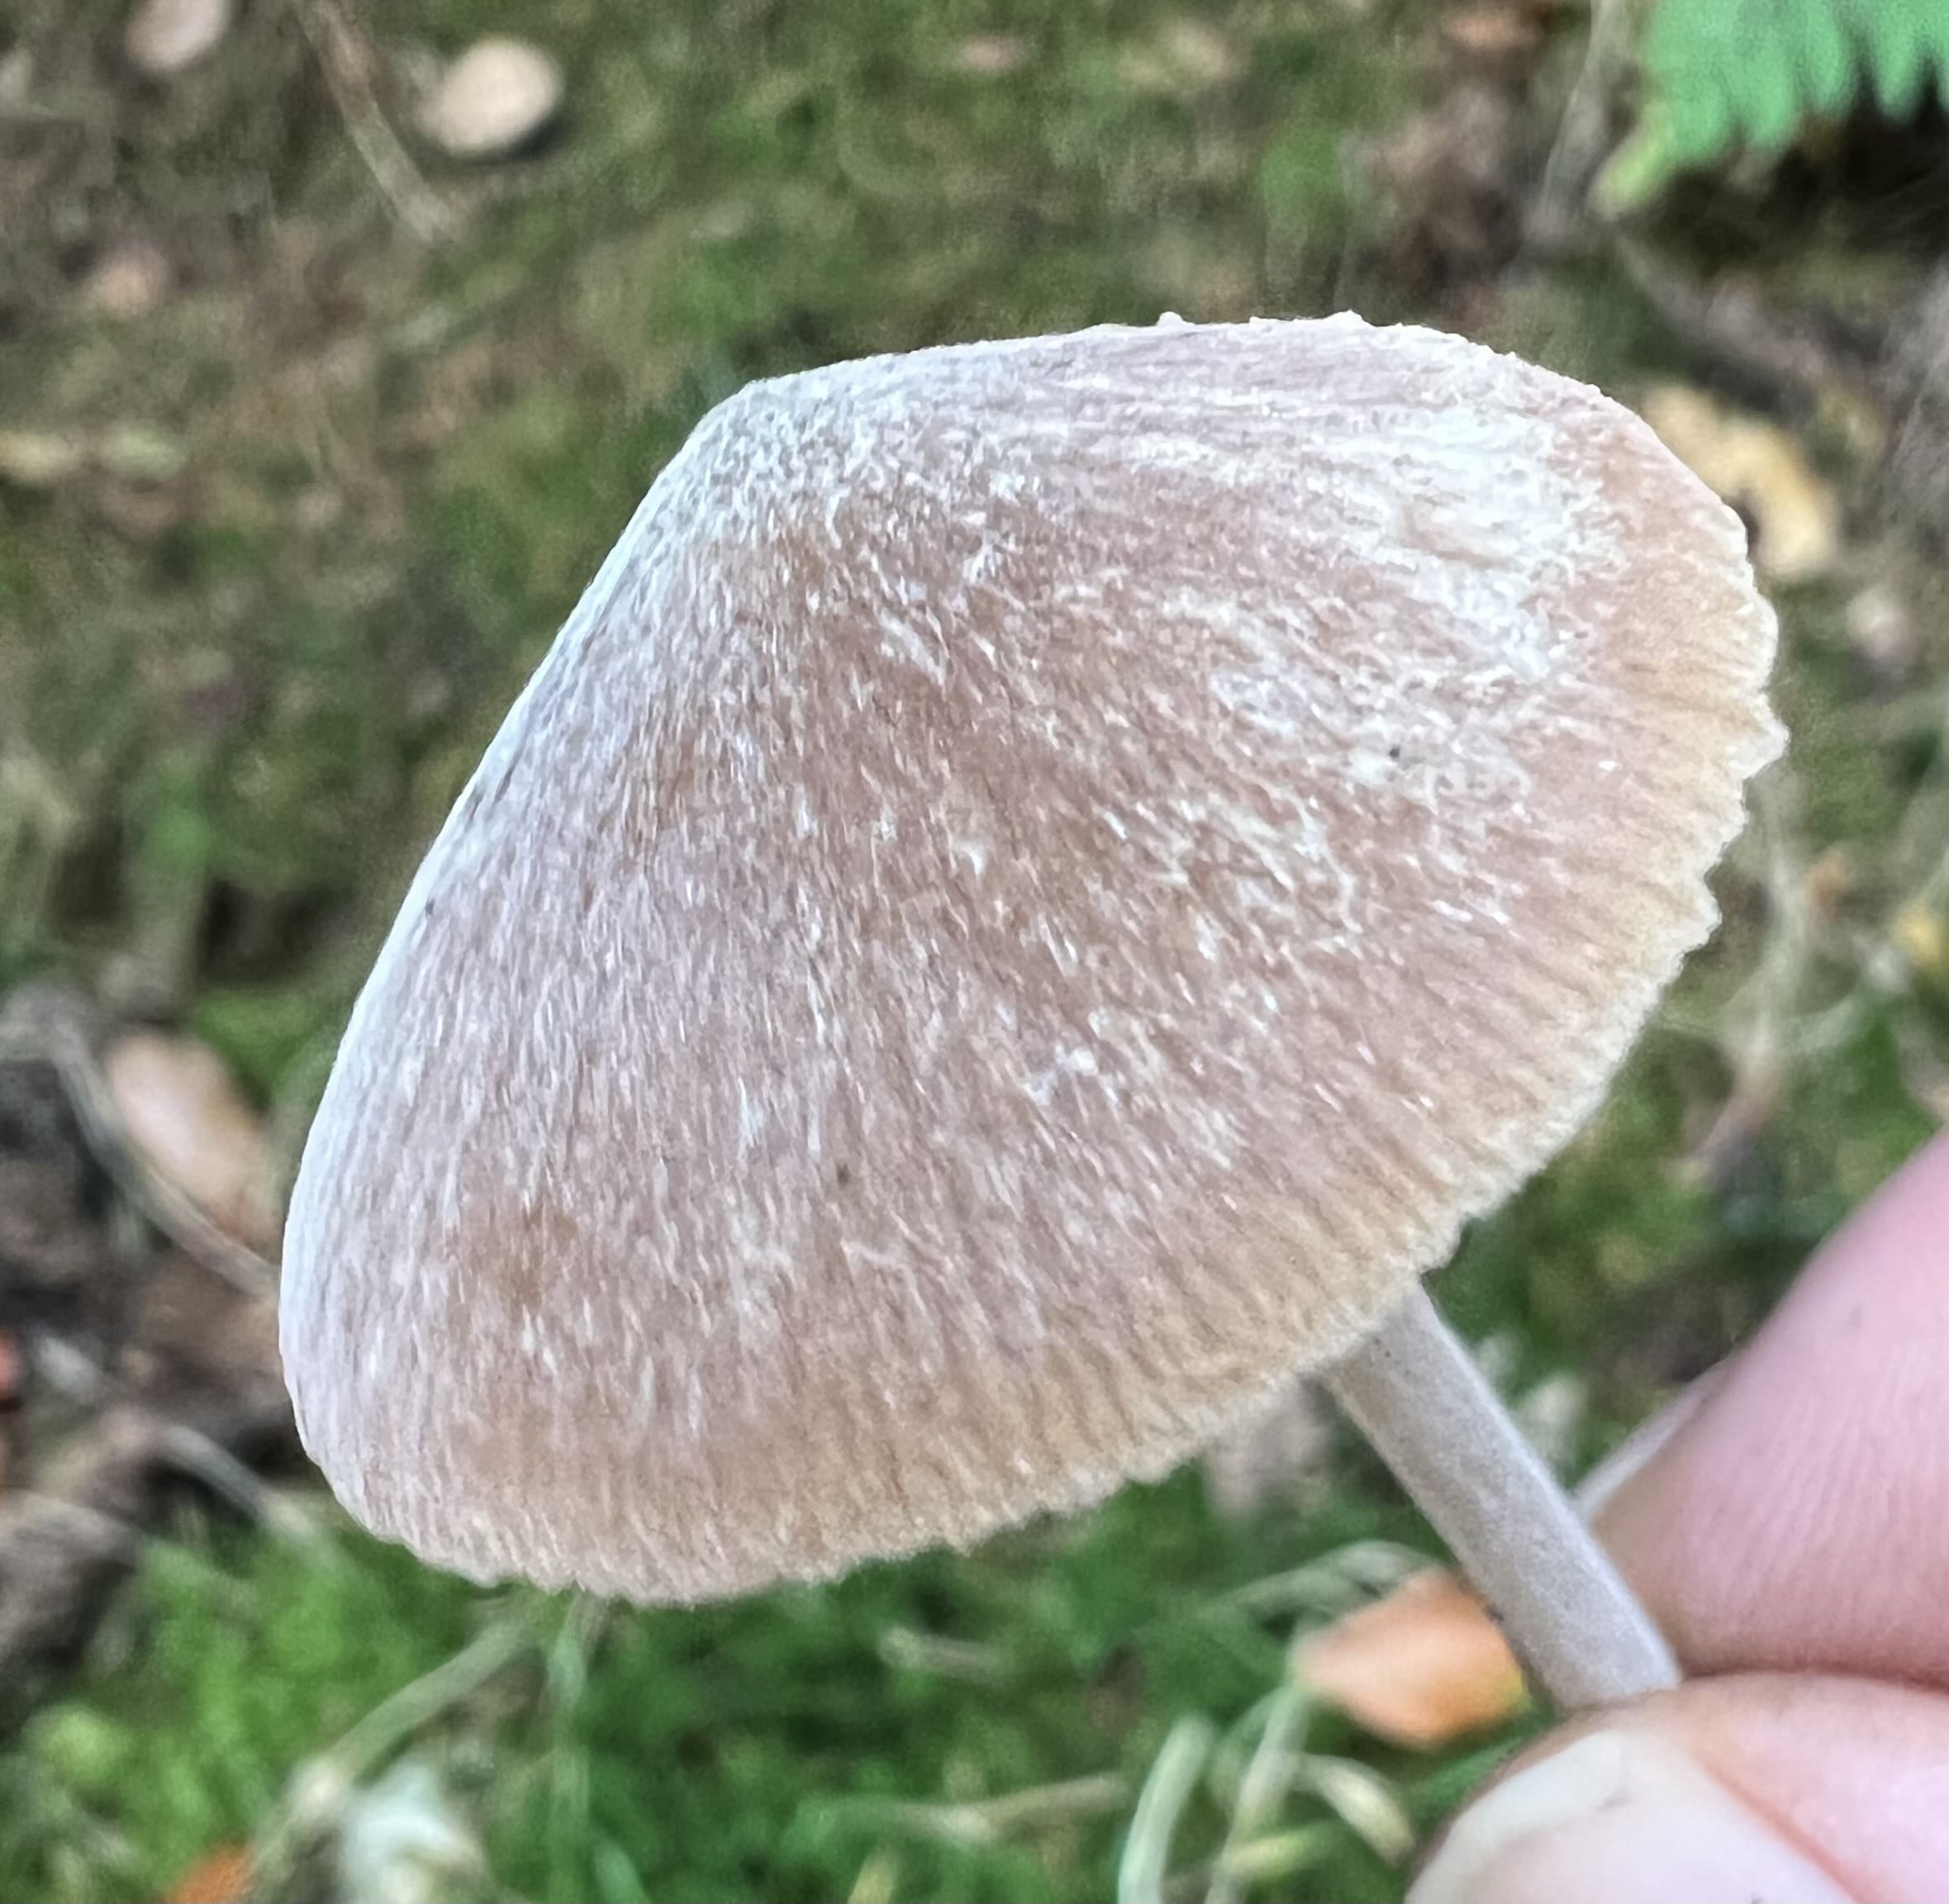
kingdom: Fungi
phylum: Basidiomycota
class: Agaricomycetes
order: Agaricales
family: Entolomataceae
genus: Entoloma
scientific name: Entoloma
